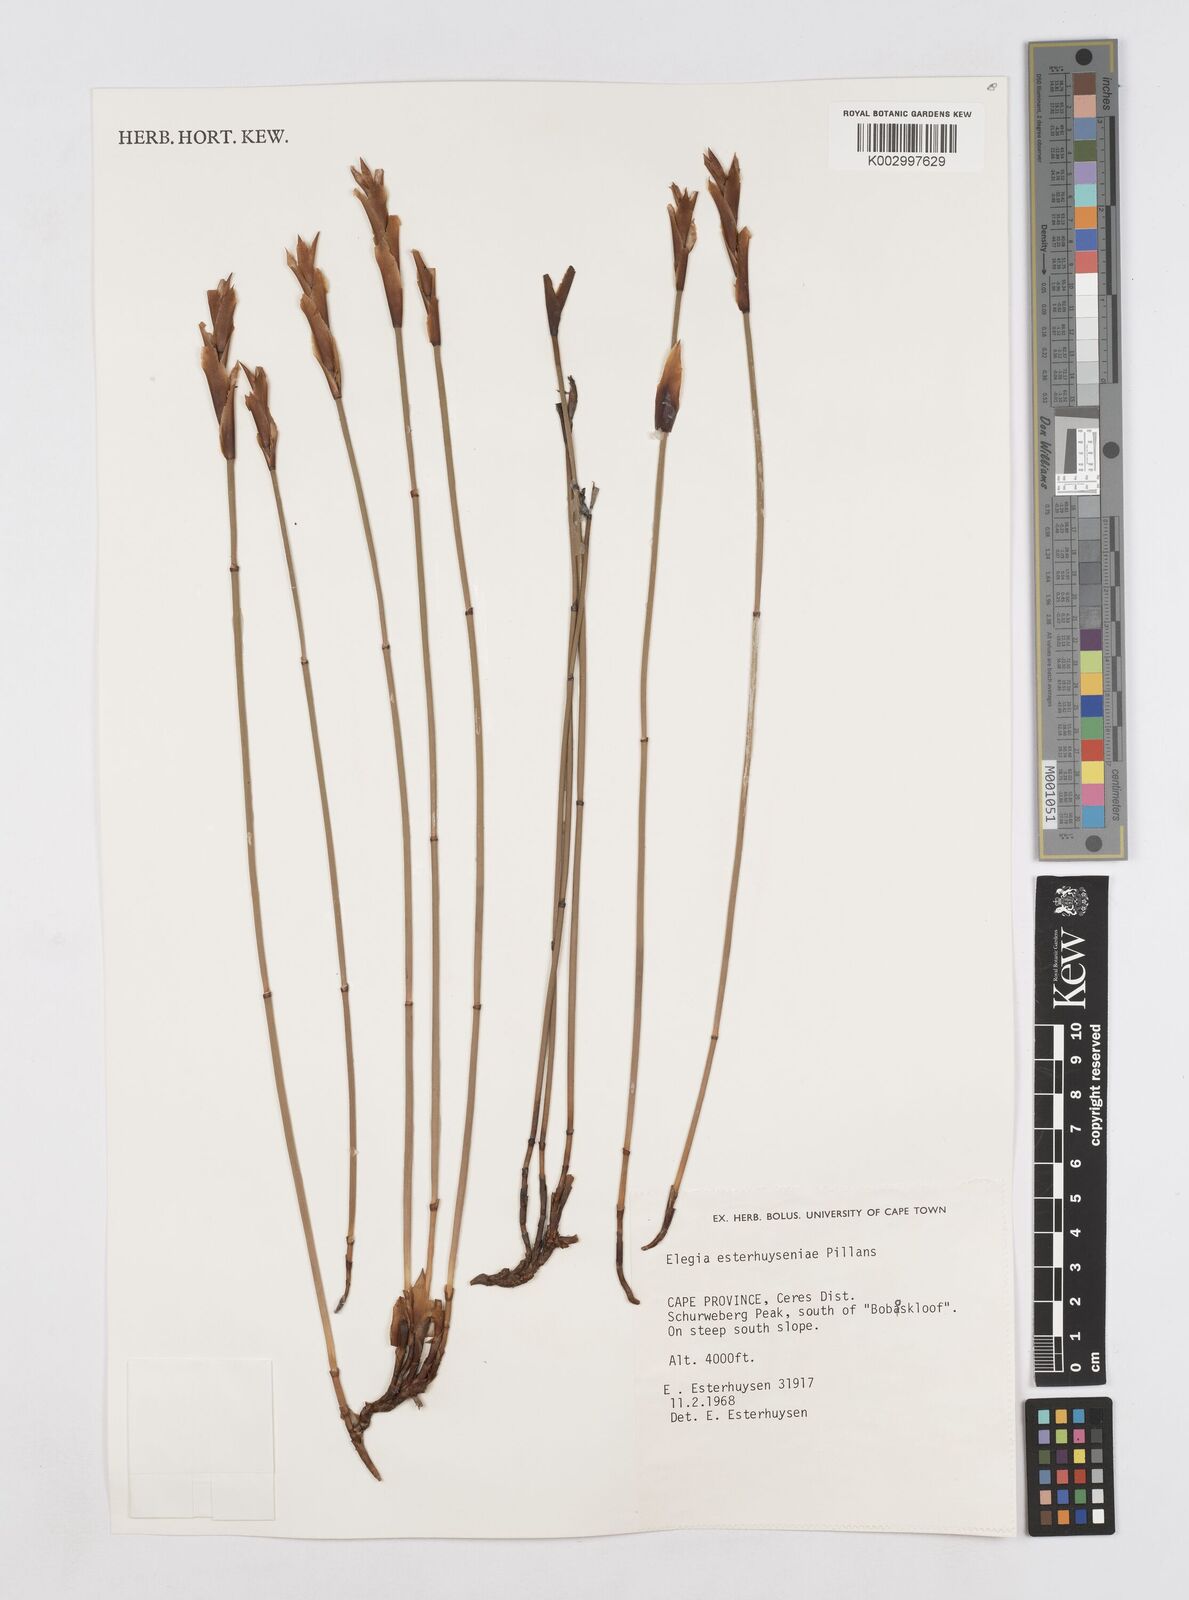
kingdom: Plantae
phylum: Tracheophyta
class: Liliopsida
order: Poales
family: Restionaceae
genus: Elegia
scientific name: Elegia esterhuyseniae
